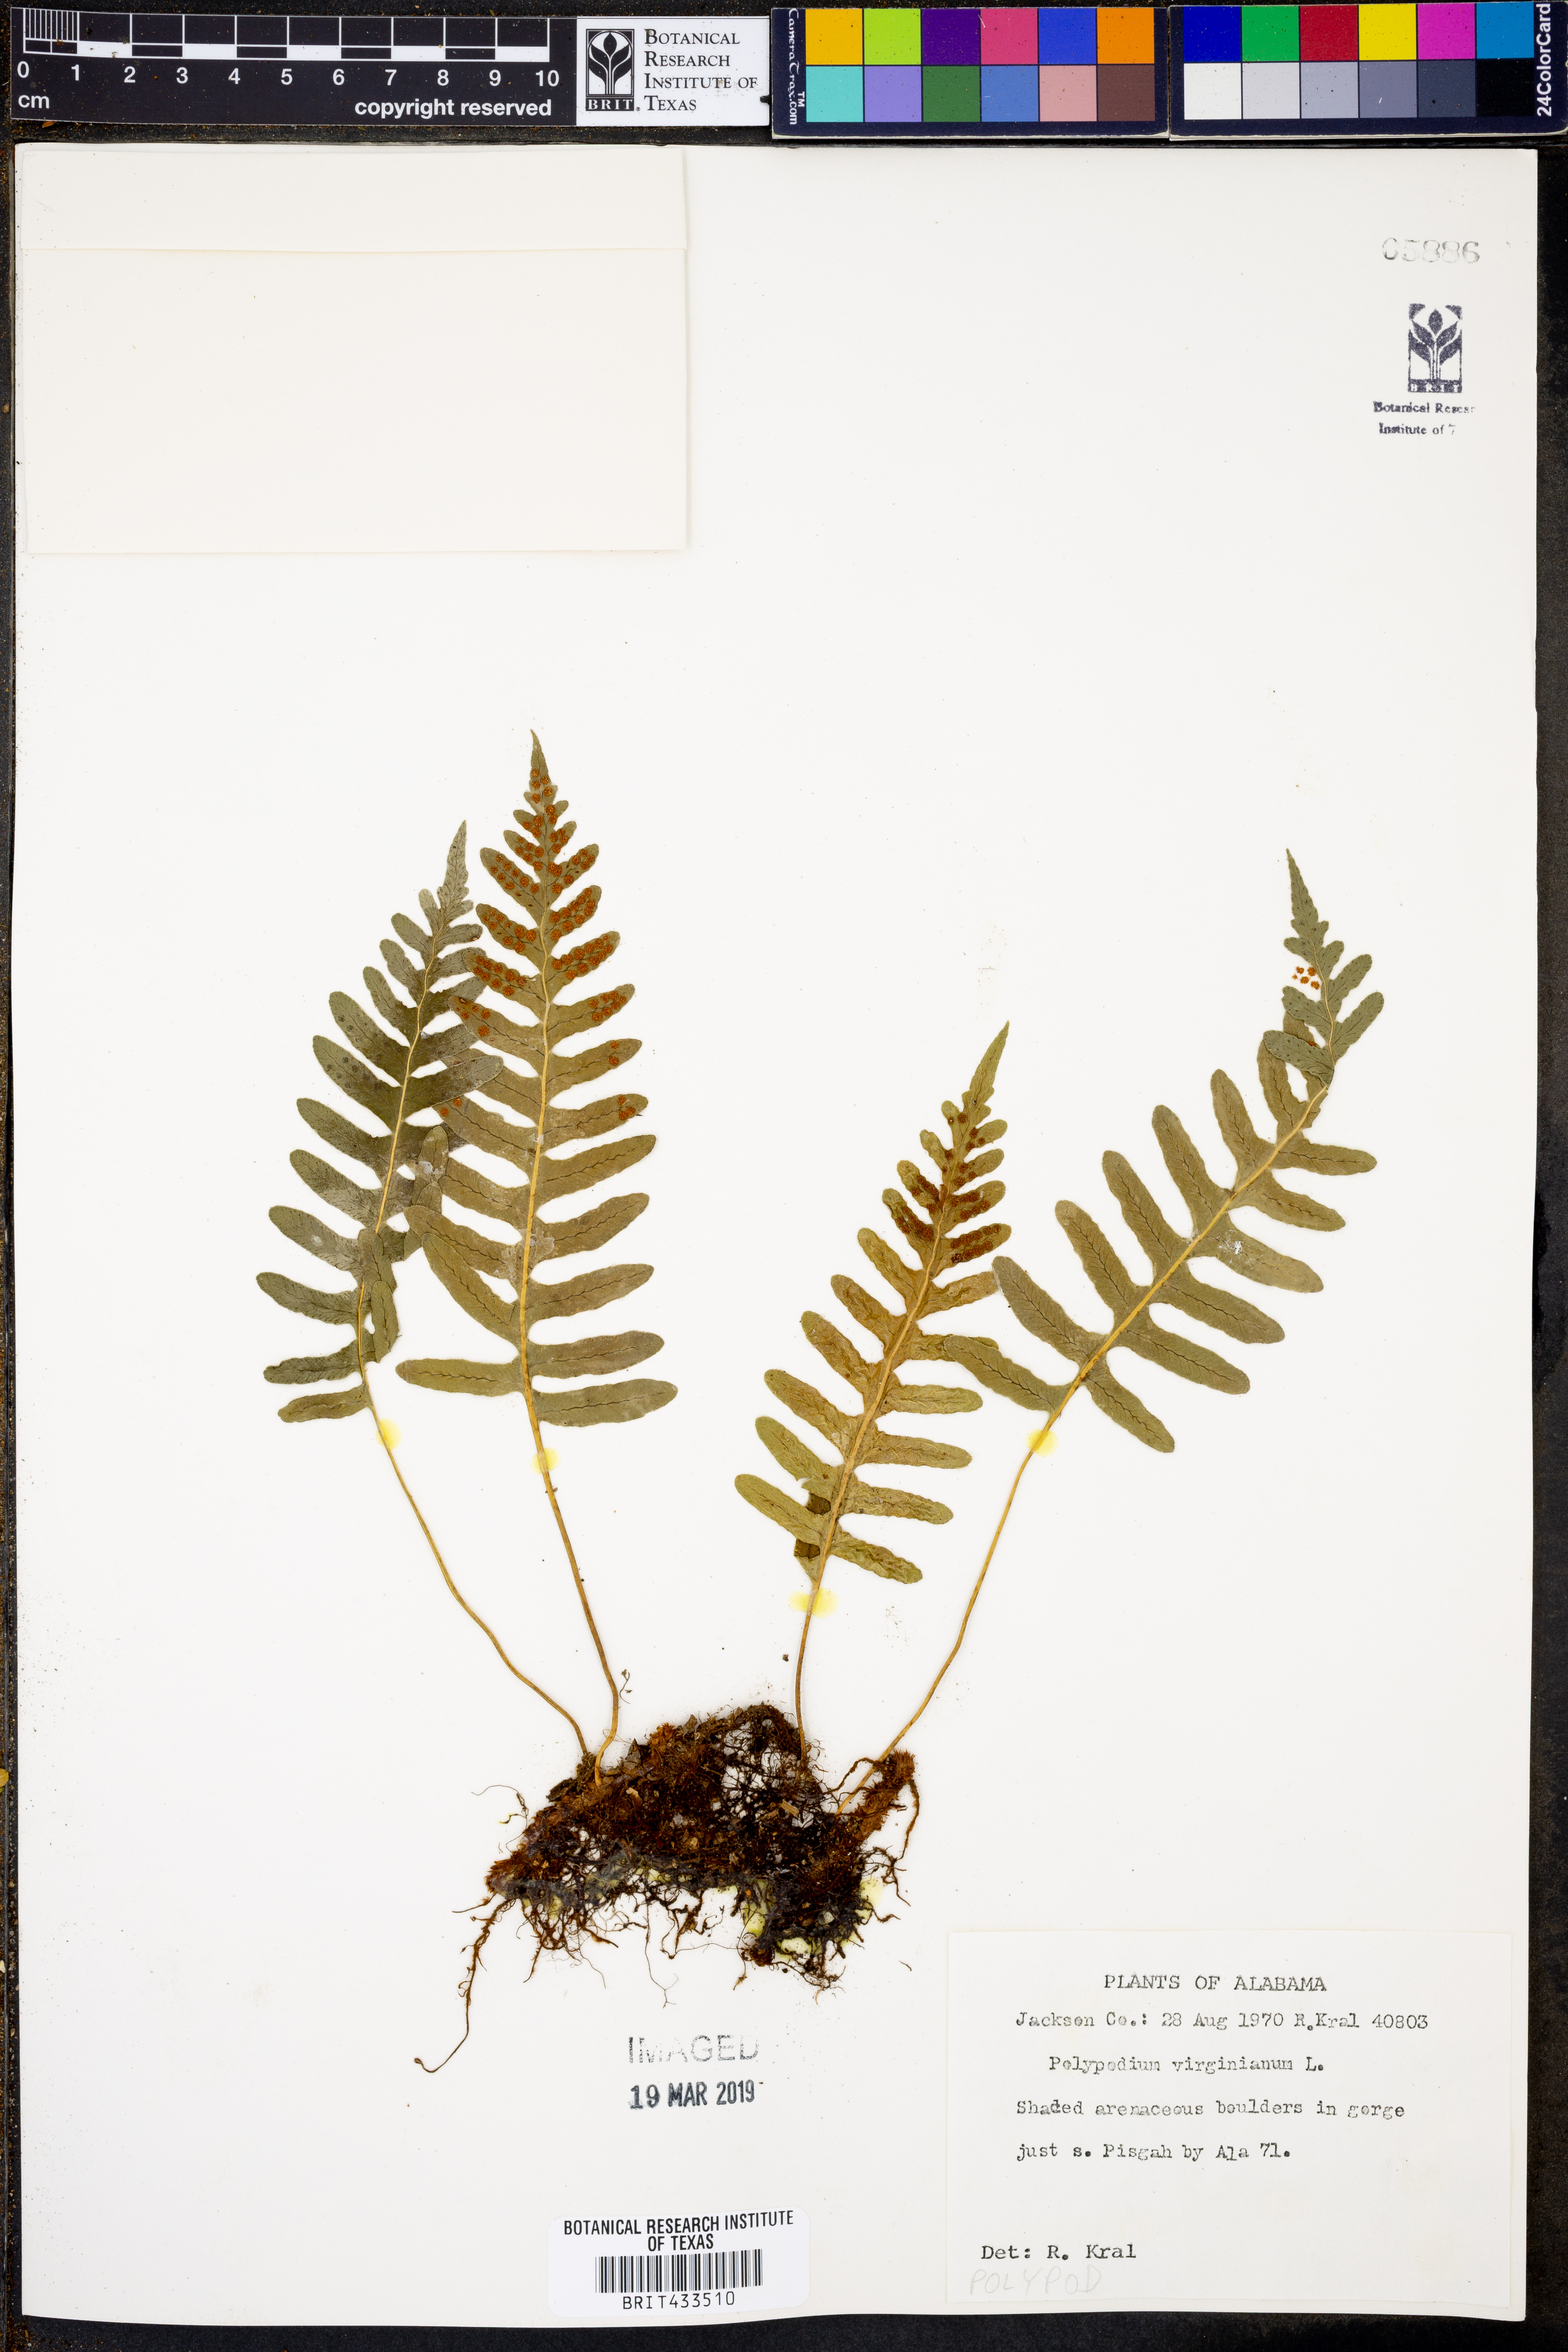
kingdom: Plantae
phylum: Tracheophyta
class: Polypodiopsida
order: Polypodiales
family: Polypodiaceae
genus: Polypodium
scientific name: Polypodium virginianum
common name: American wall fern
